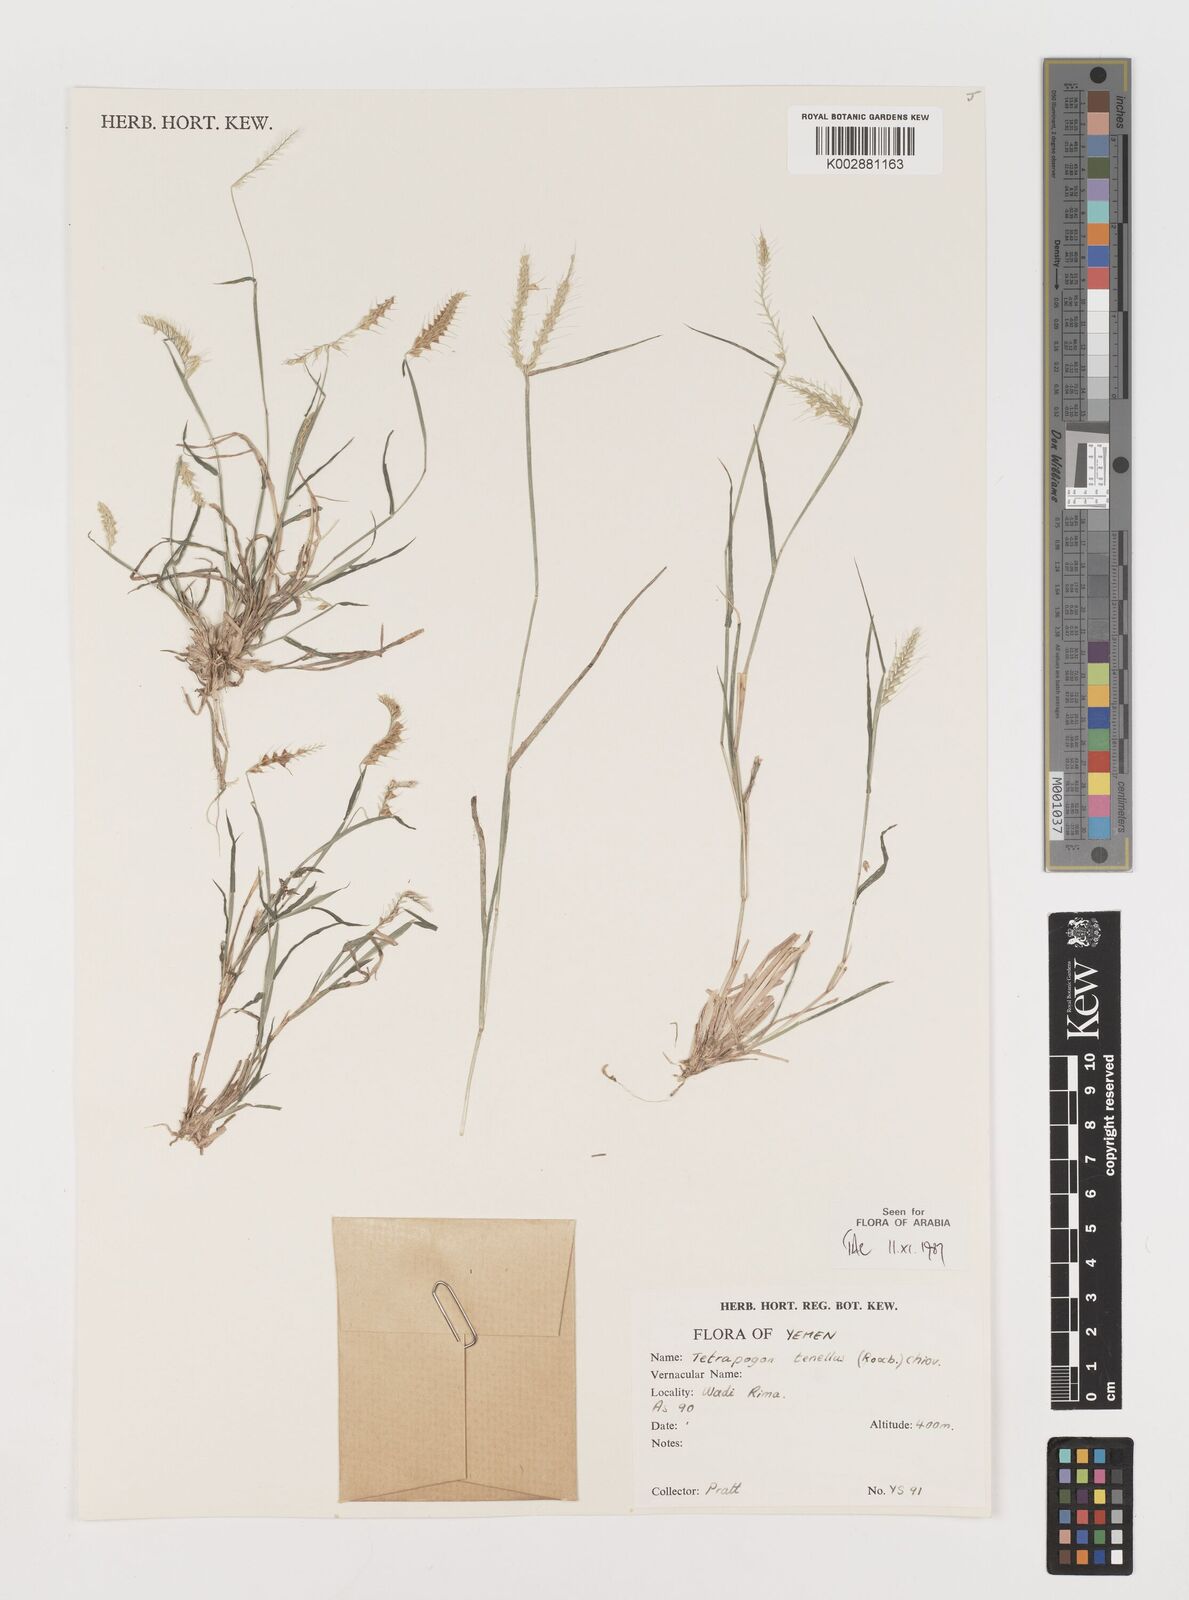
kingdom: Plantae
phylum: Tracheophyta
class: Liliopsida
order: Poales
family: Poaceae
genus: Tetrapogon
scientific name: Tetrapogon tenellus
